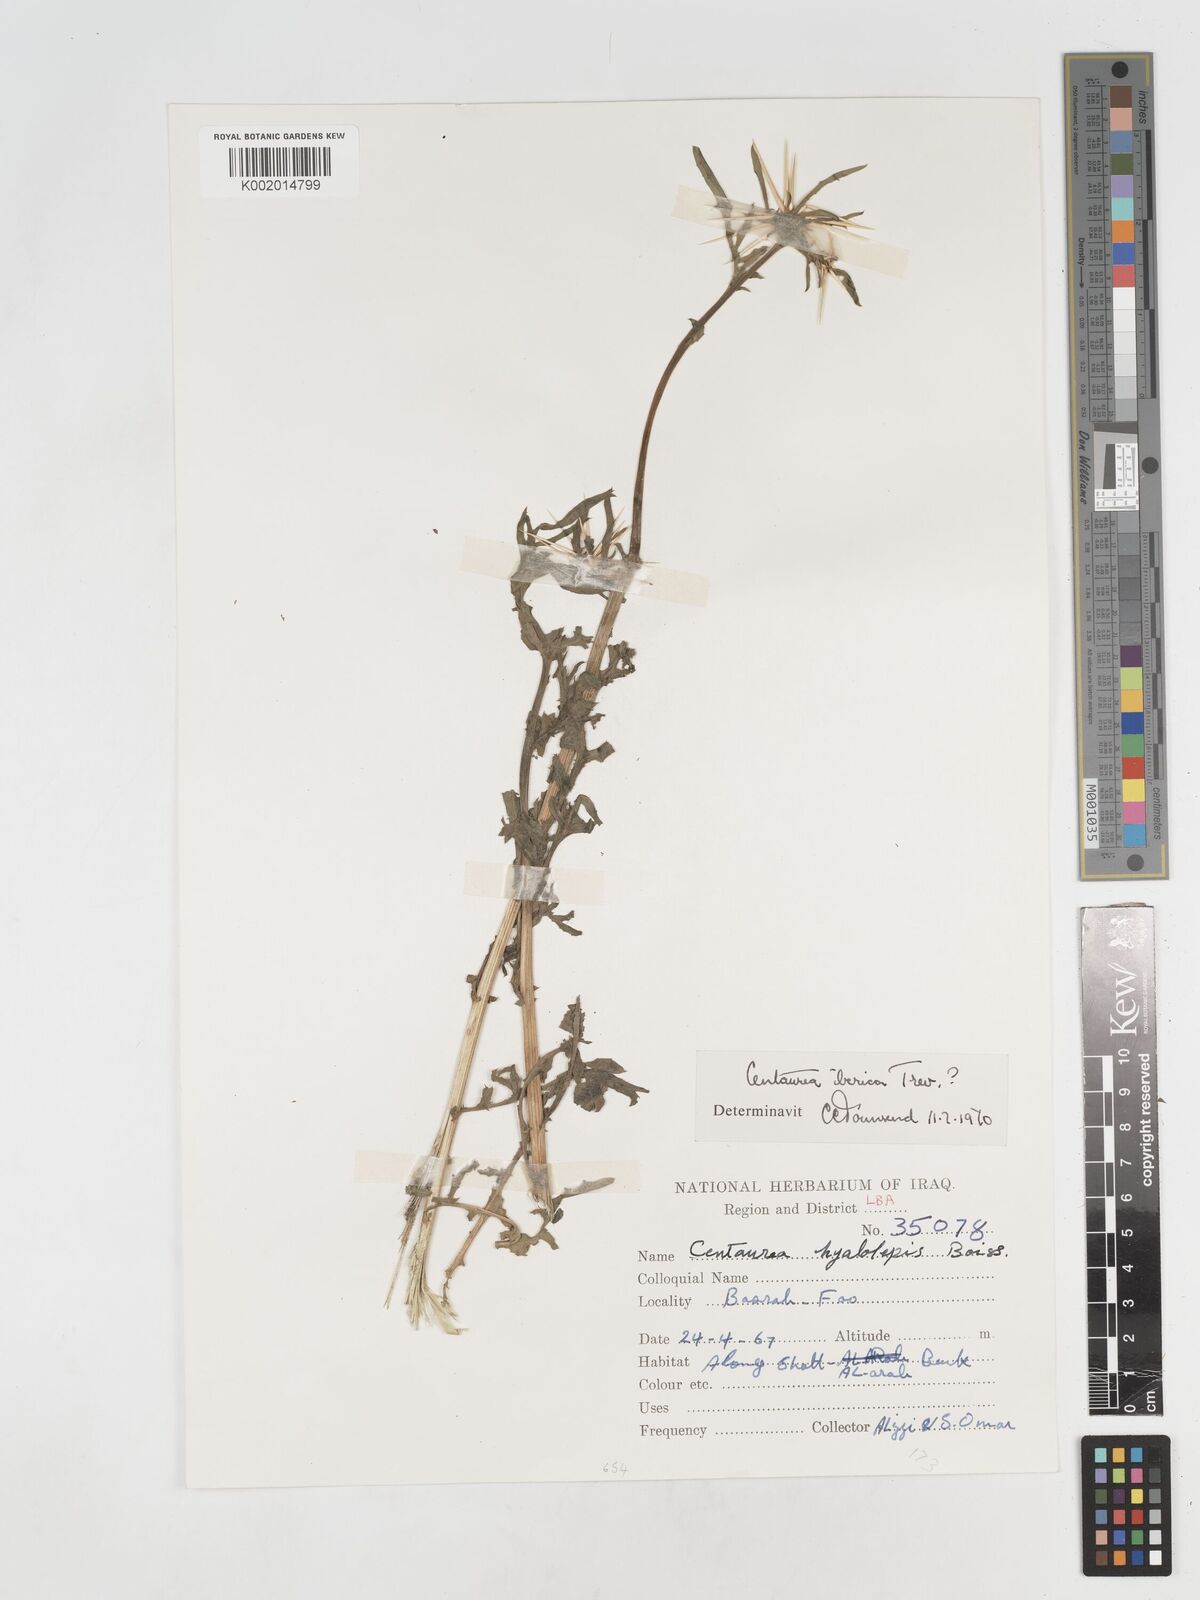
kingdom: Plantae
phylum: Tracheophyta
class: Magnoliopsida
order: Asterales
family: Asteraceae
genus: Centaurea
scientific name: Centaurea iberica
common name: Iberian knapweed
